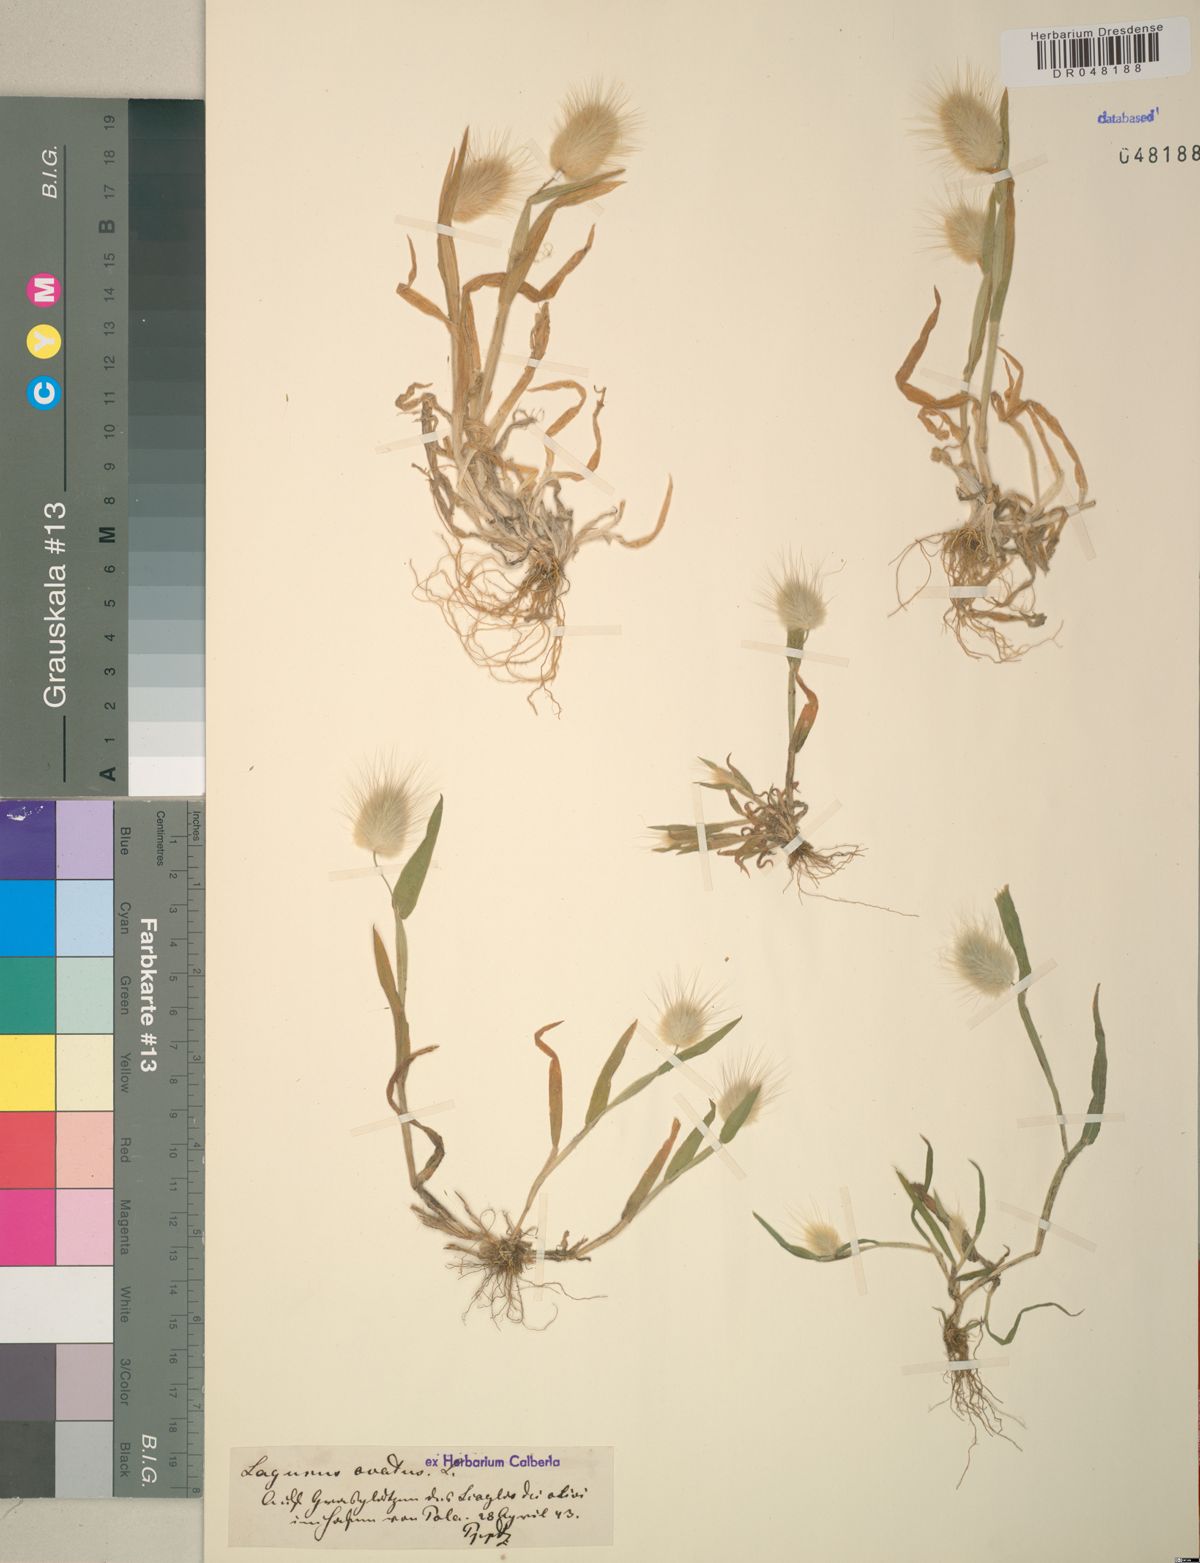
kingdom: Plantae
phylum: Tracheophyta
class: Liliopsida
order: Poales
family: Poaceae
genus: Lagurus
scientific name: Lagurus ovatus
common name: Hare's-tail
